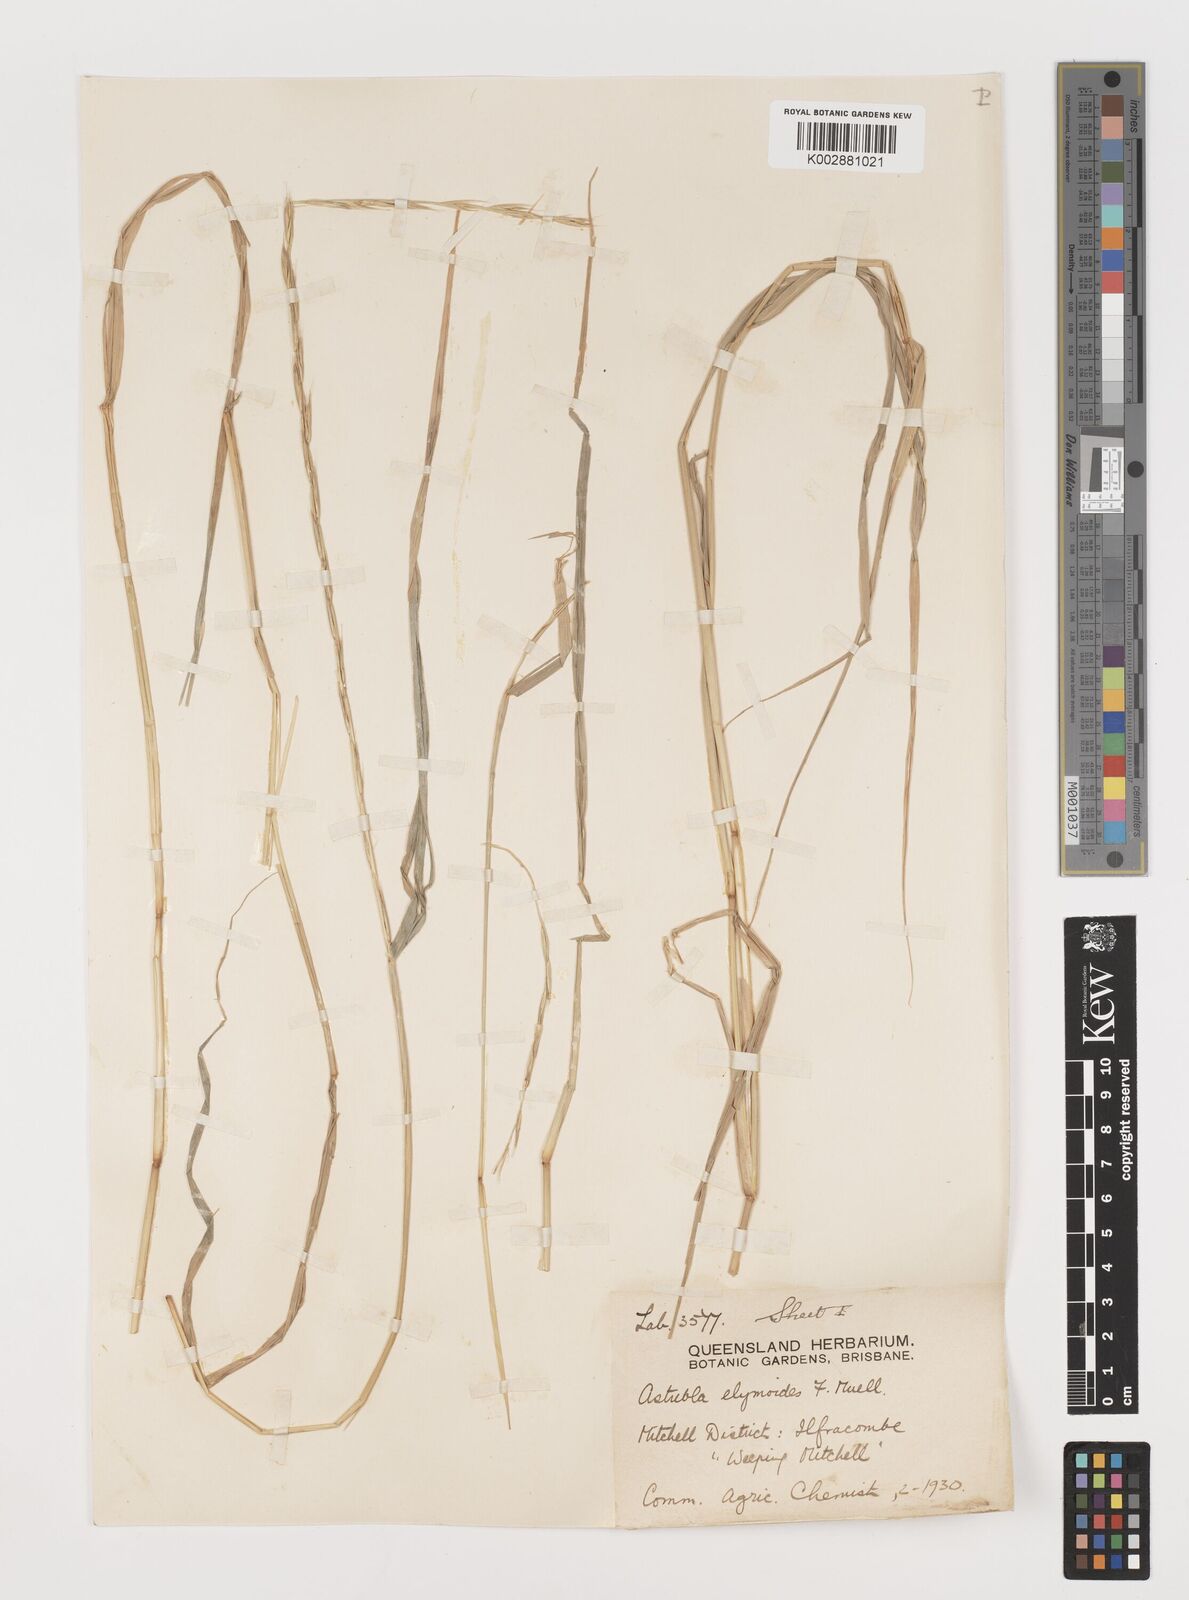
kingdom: Plantae
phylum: Tracheophyta
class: Liliopsida
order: Poales
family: Poaceae
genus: Astrebla
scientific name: Astrebla elymoides
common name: Hoop mitchell grass
